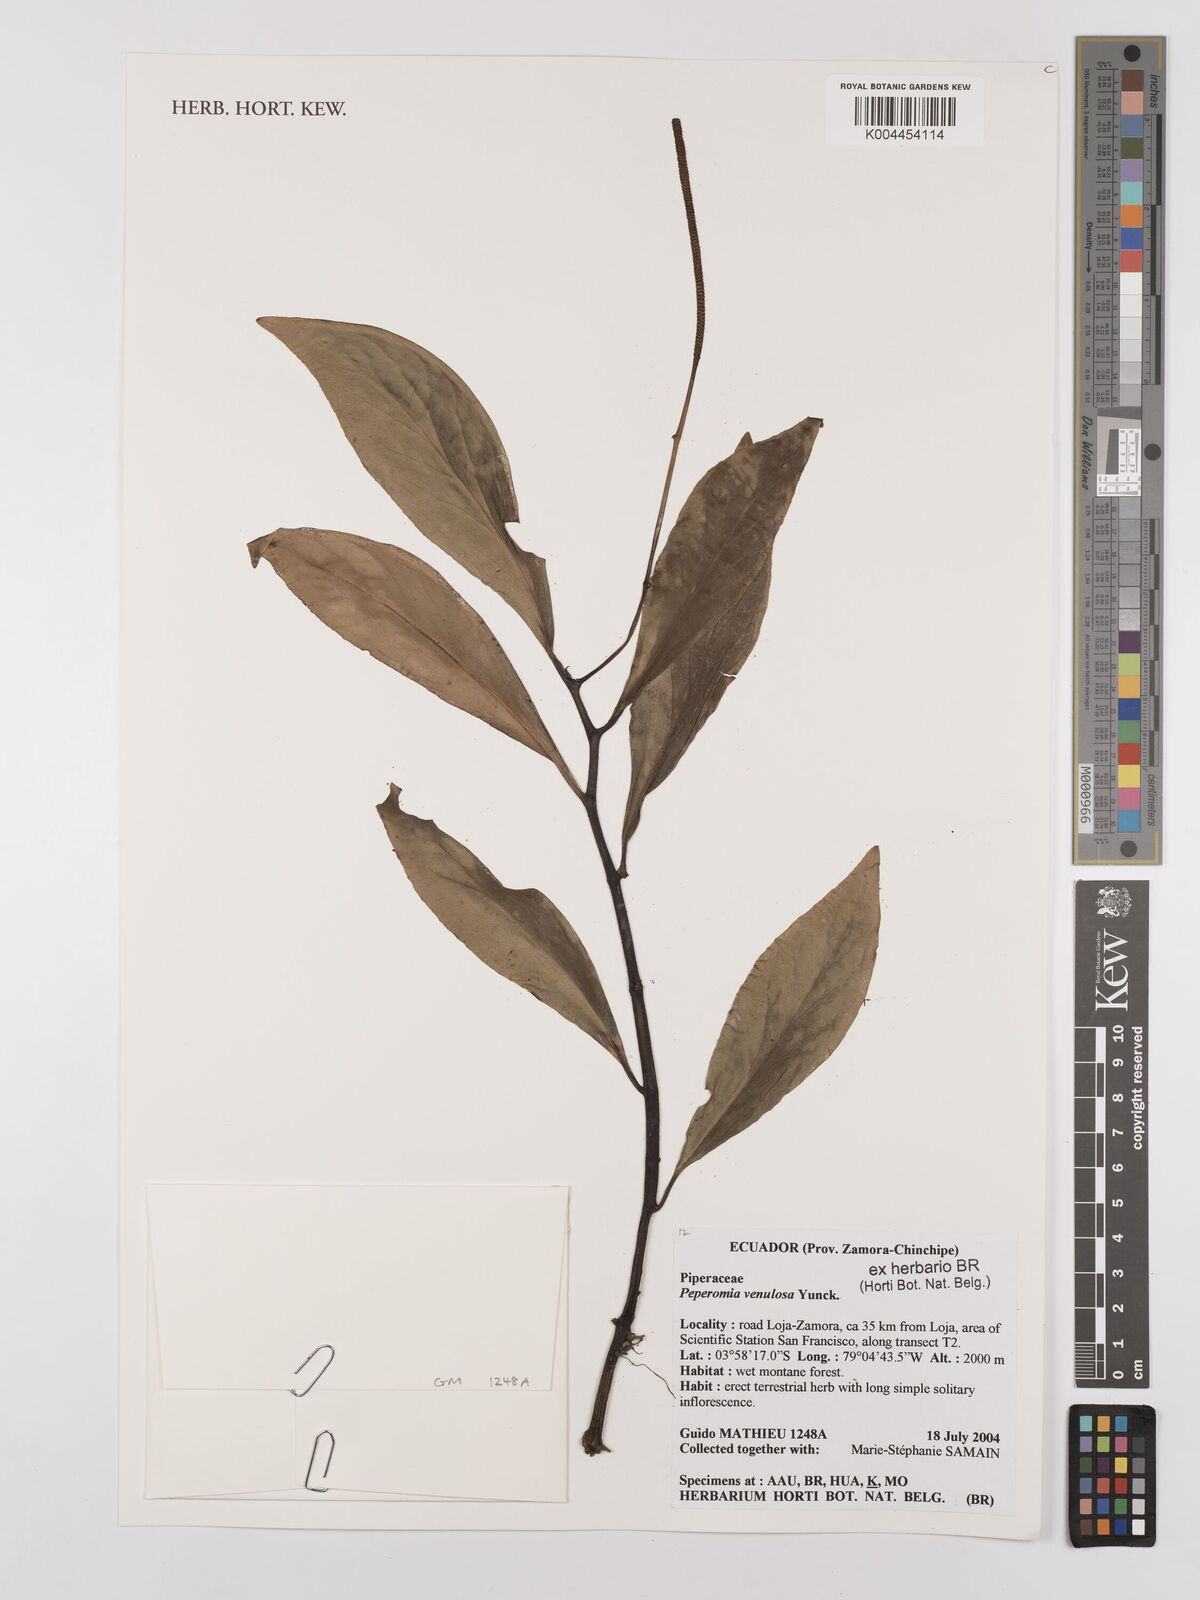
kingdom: Plantae
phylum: Tracheophyta
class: Magnoliopsida
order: Piperales
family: Piperaceae
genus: Peperomia
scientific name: Peperomia venulosa
